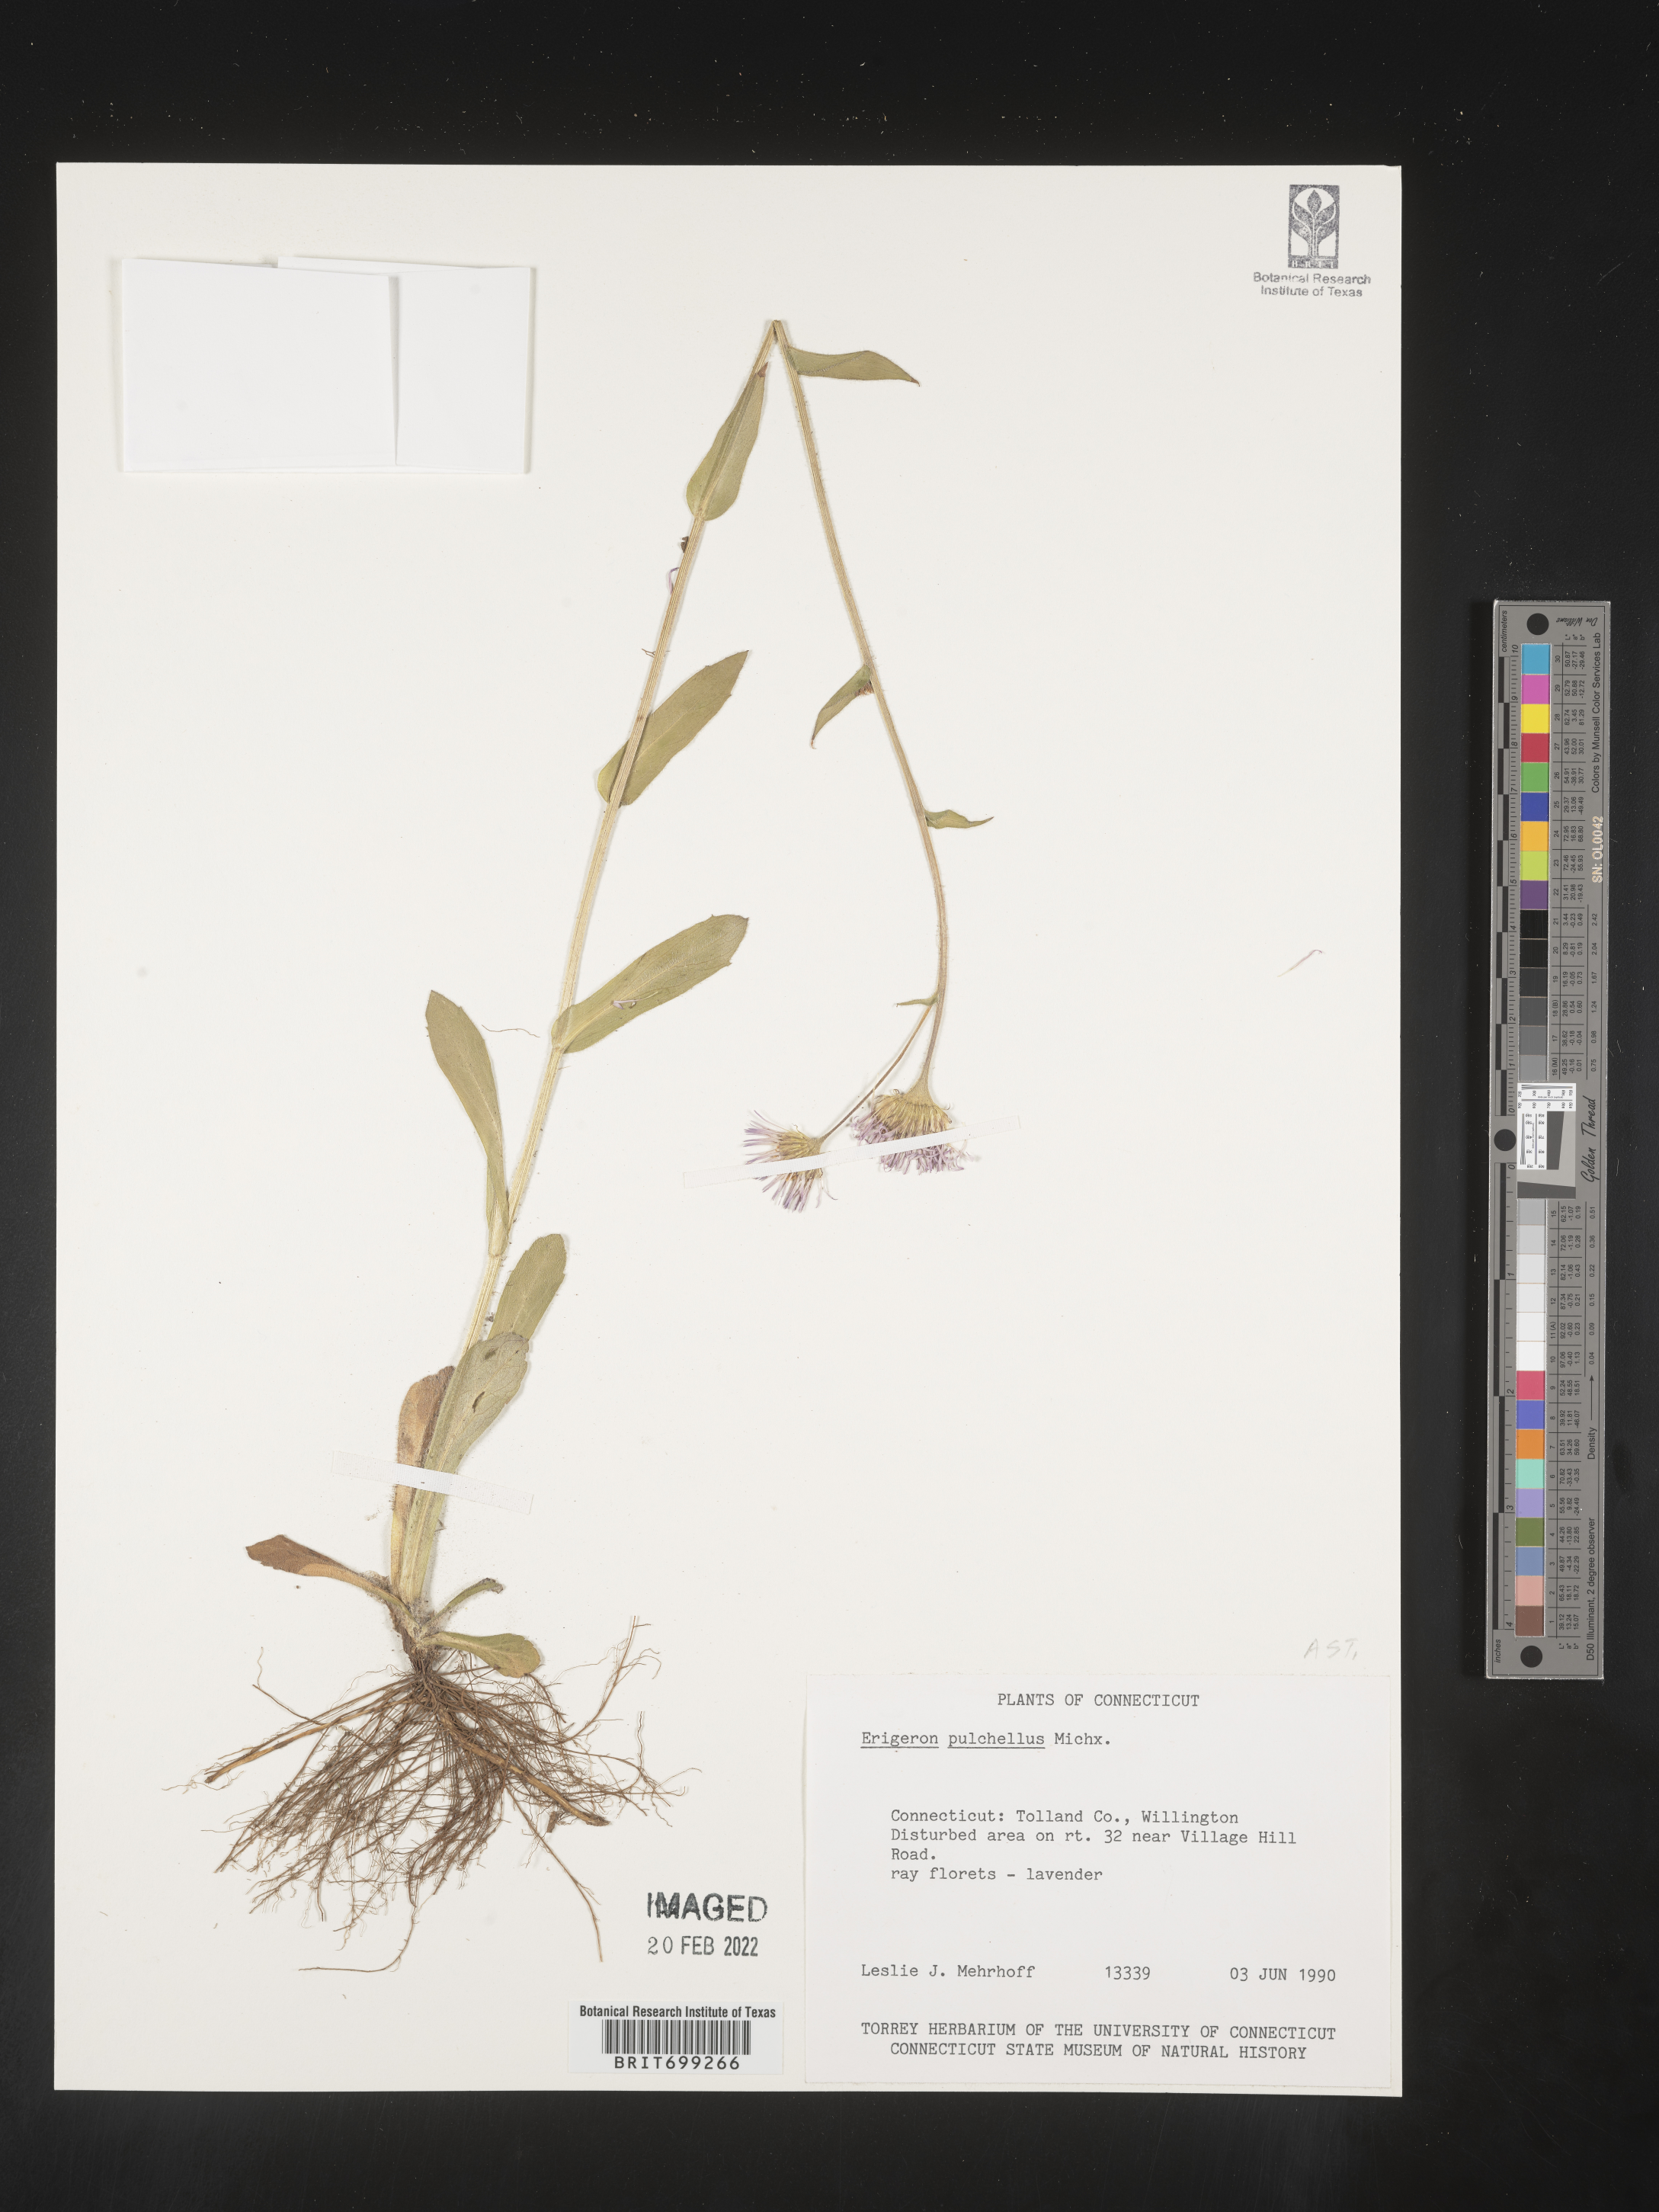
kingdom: Plantae
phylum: Tracheophyta
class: Magnoliopsida
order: Asterales
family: Asteraceae
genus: Erigeron
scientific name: Erigeron pulchellus
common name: Hairy fleabane
